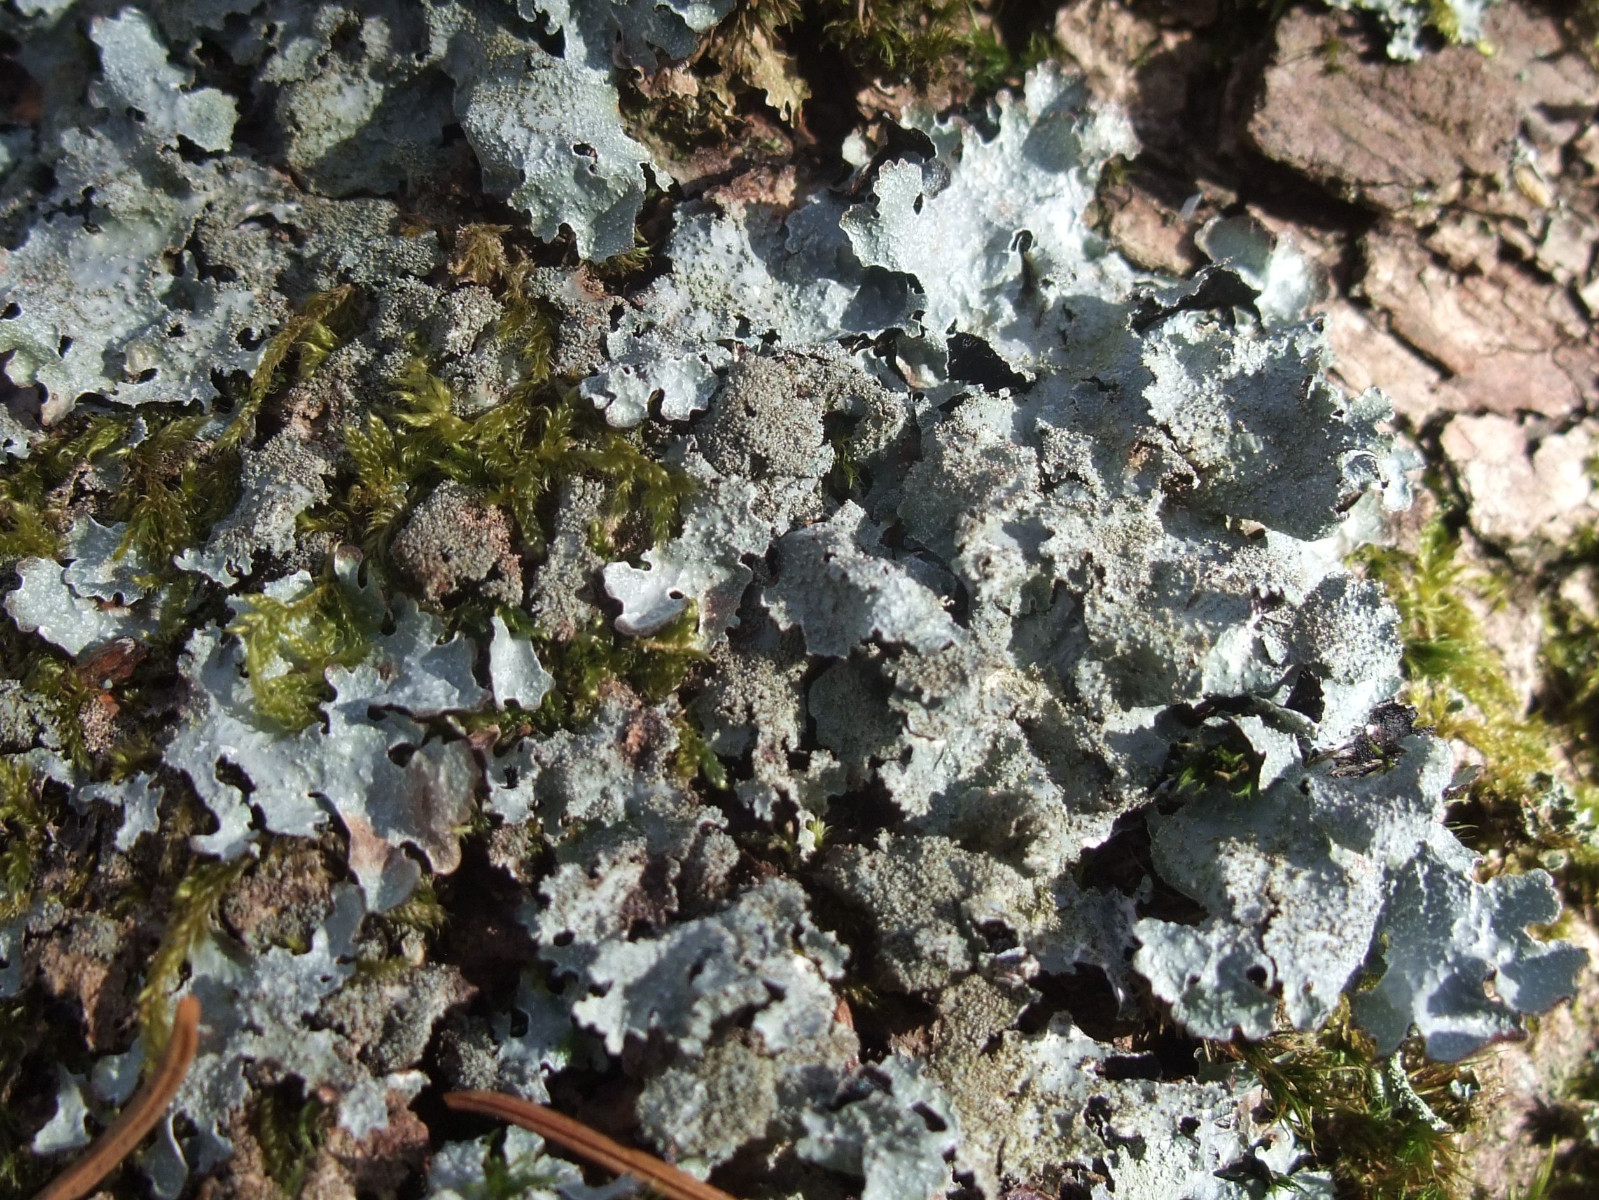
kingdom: Fungi
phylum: Ascomycota
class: Lecanoromycetes
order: Lecanorales
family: Parmeliaceae
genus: Parmelia
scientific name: Parmelia saxatilis
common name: farve-skållav
